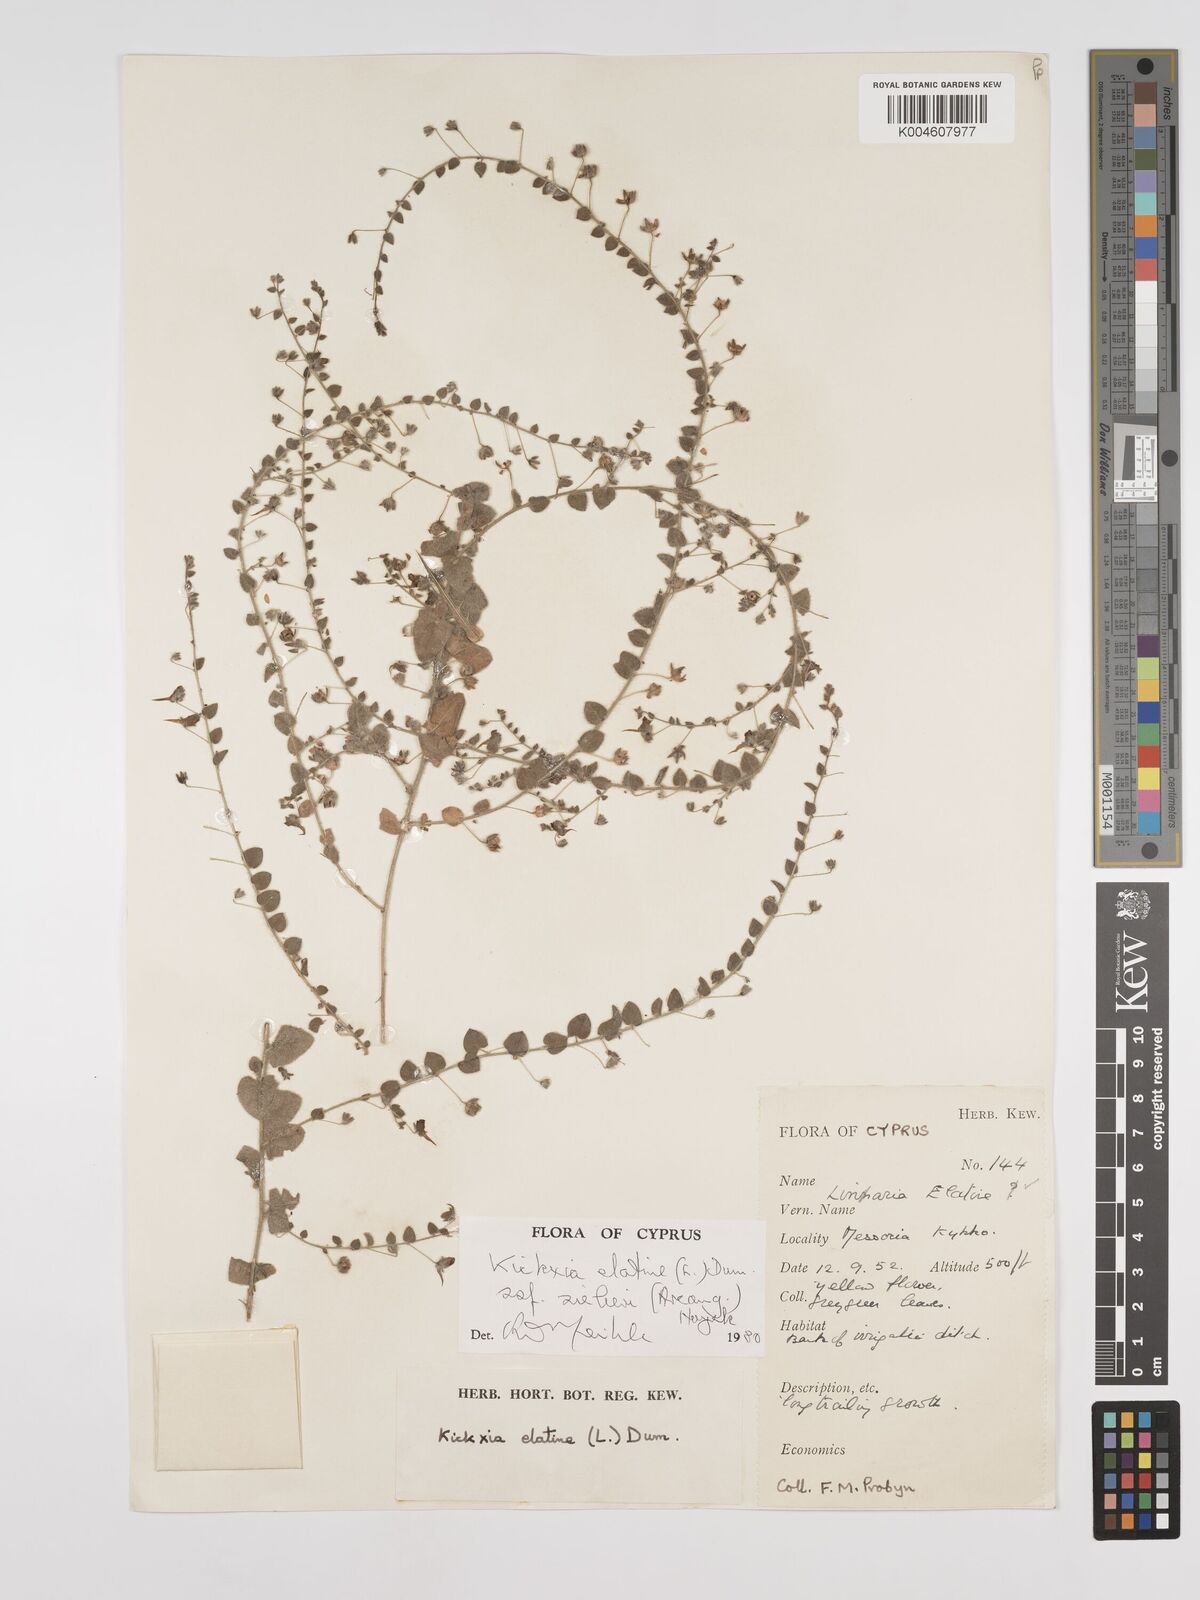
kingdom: Plantae
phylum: Tracheophyta
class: Magnoliopsida
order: Lamiales
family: Plantaginaceae
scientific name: Plantaginaceae
